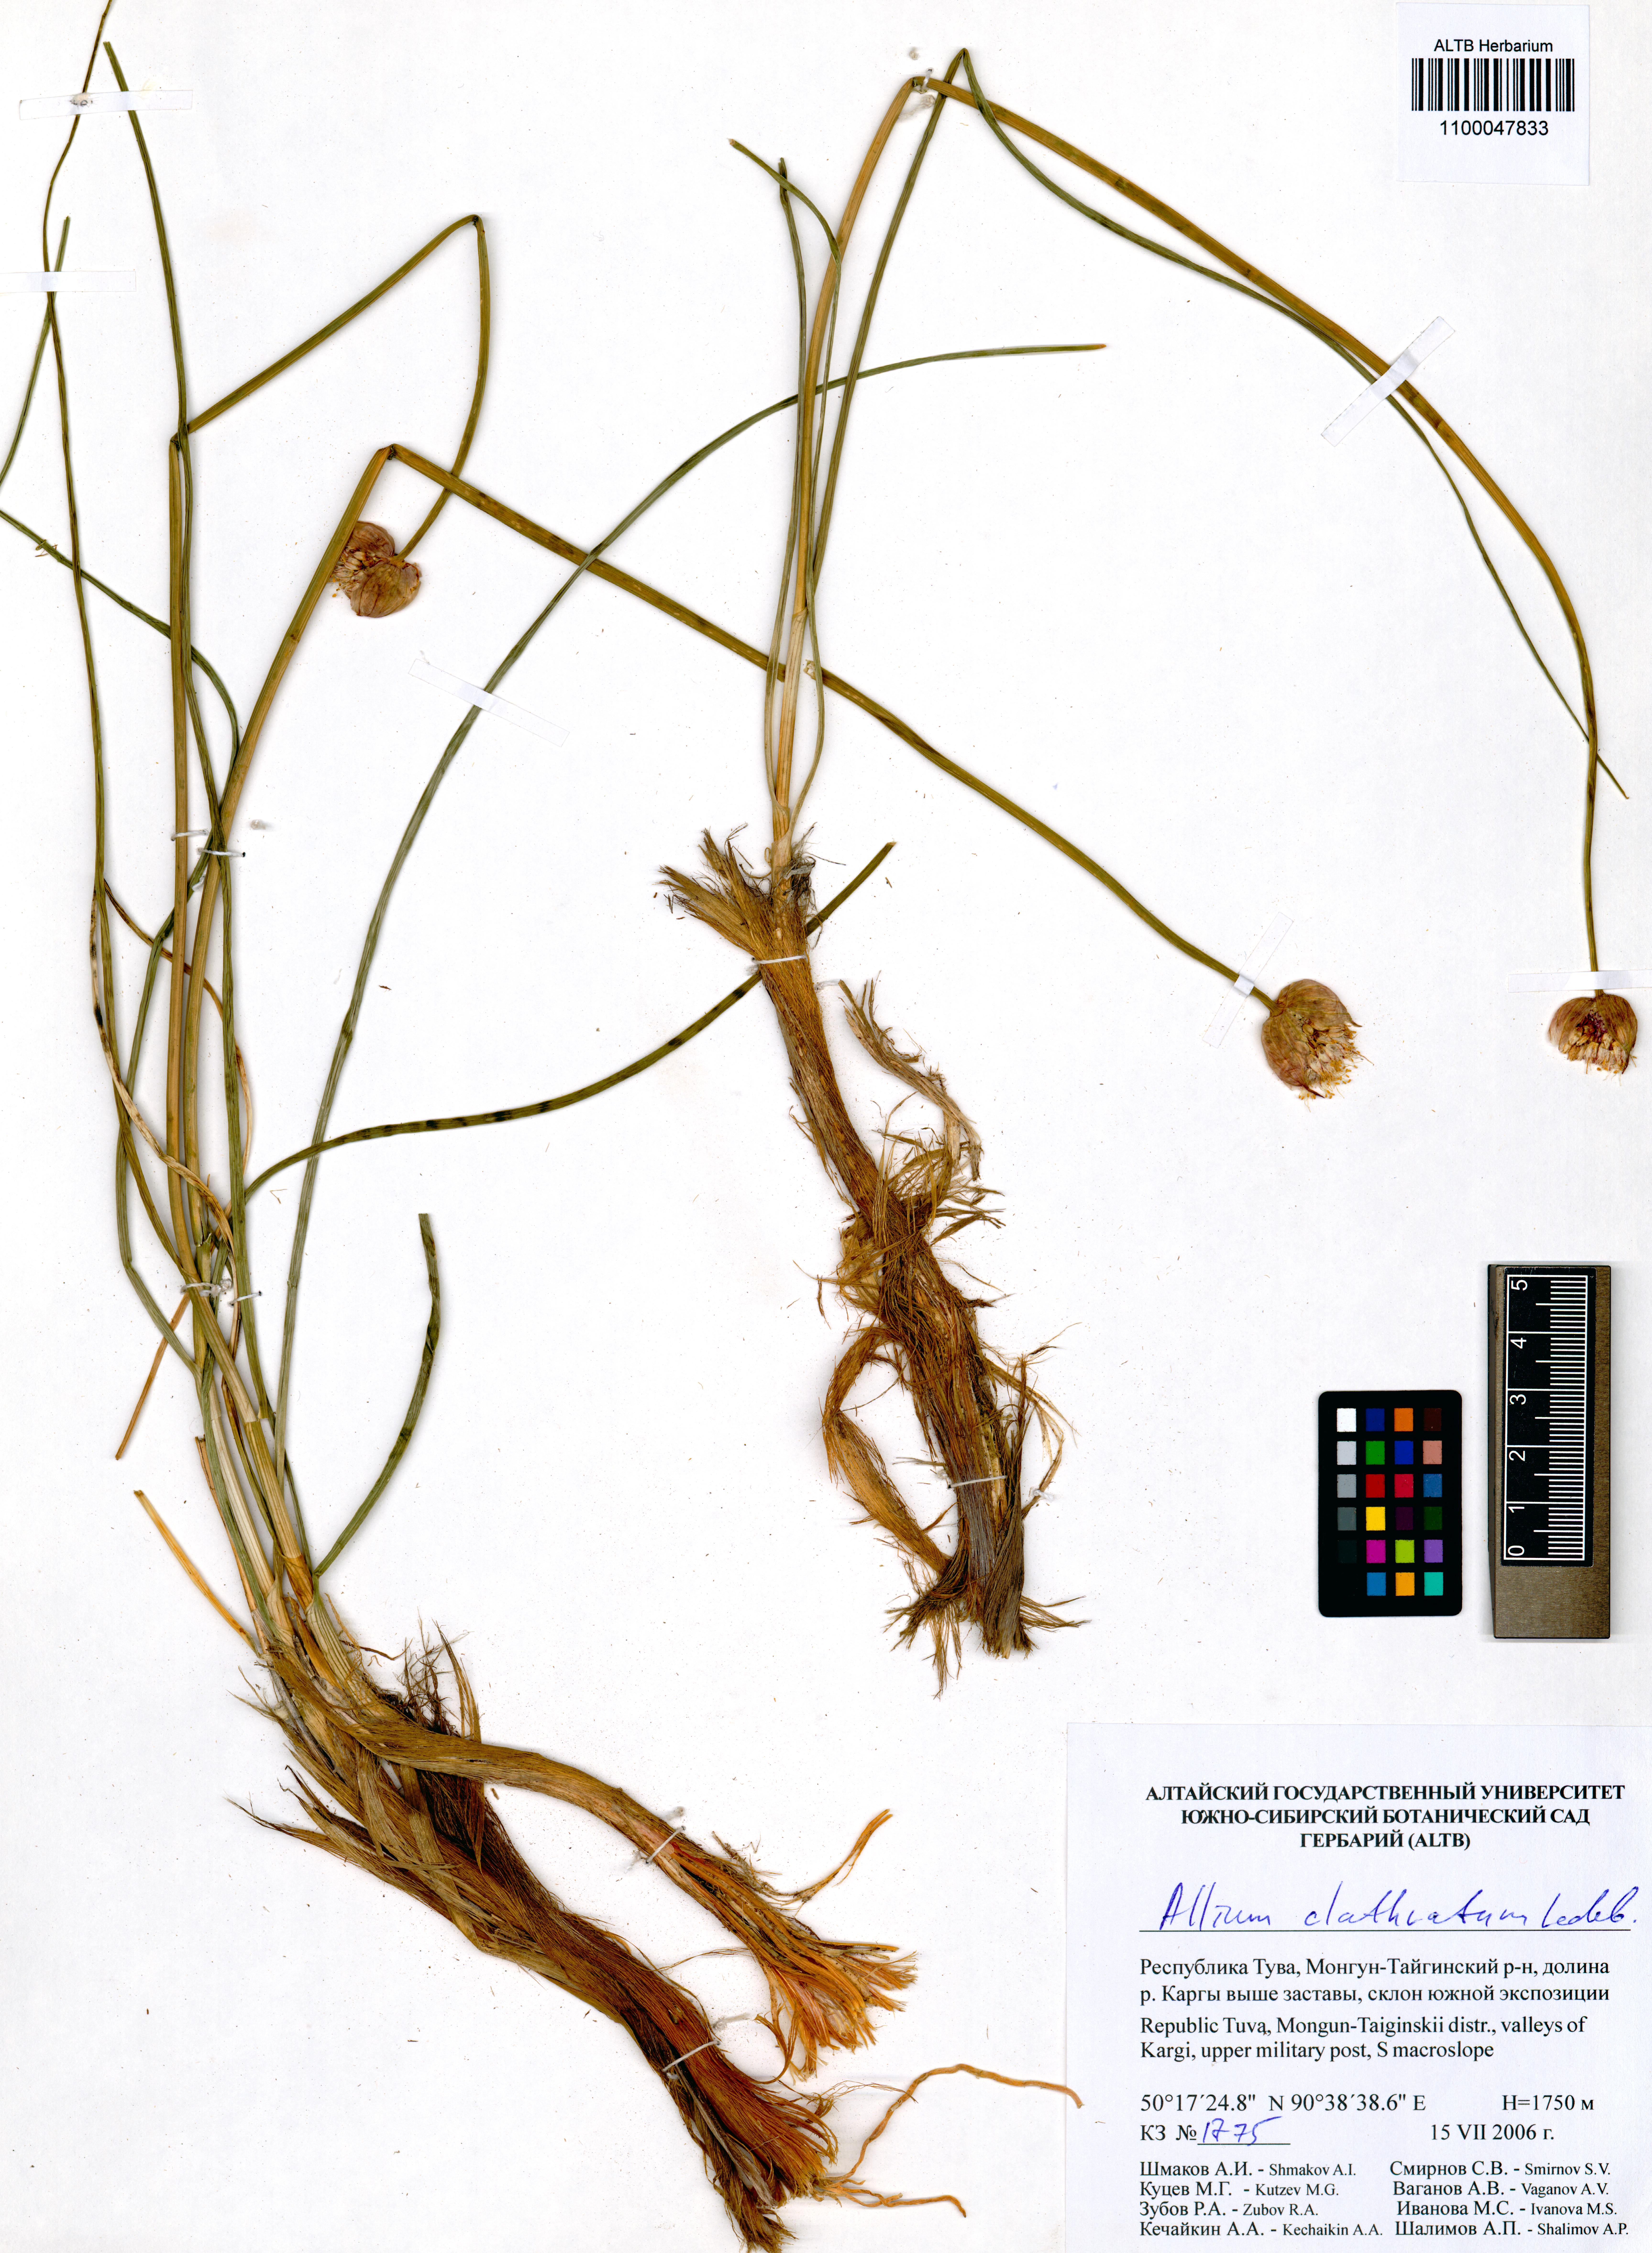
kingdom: Plantae
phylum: Tracheophyta
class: Liliopsida
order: Asparagales
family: Amaryllidaceae
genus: Allium
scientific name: Allium clathratum
